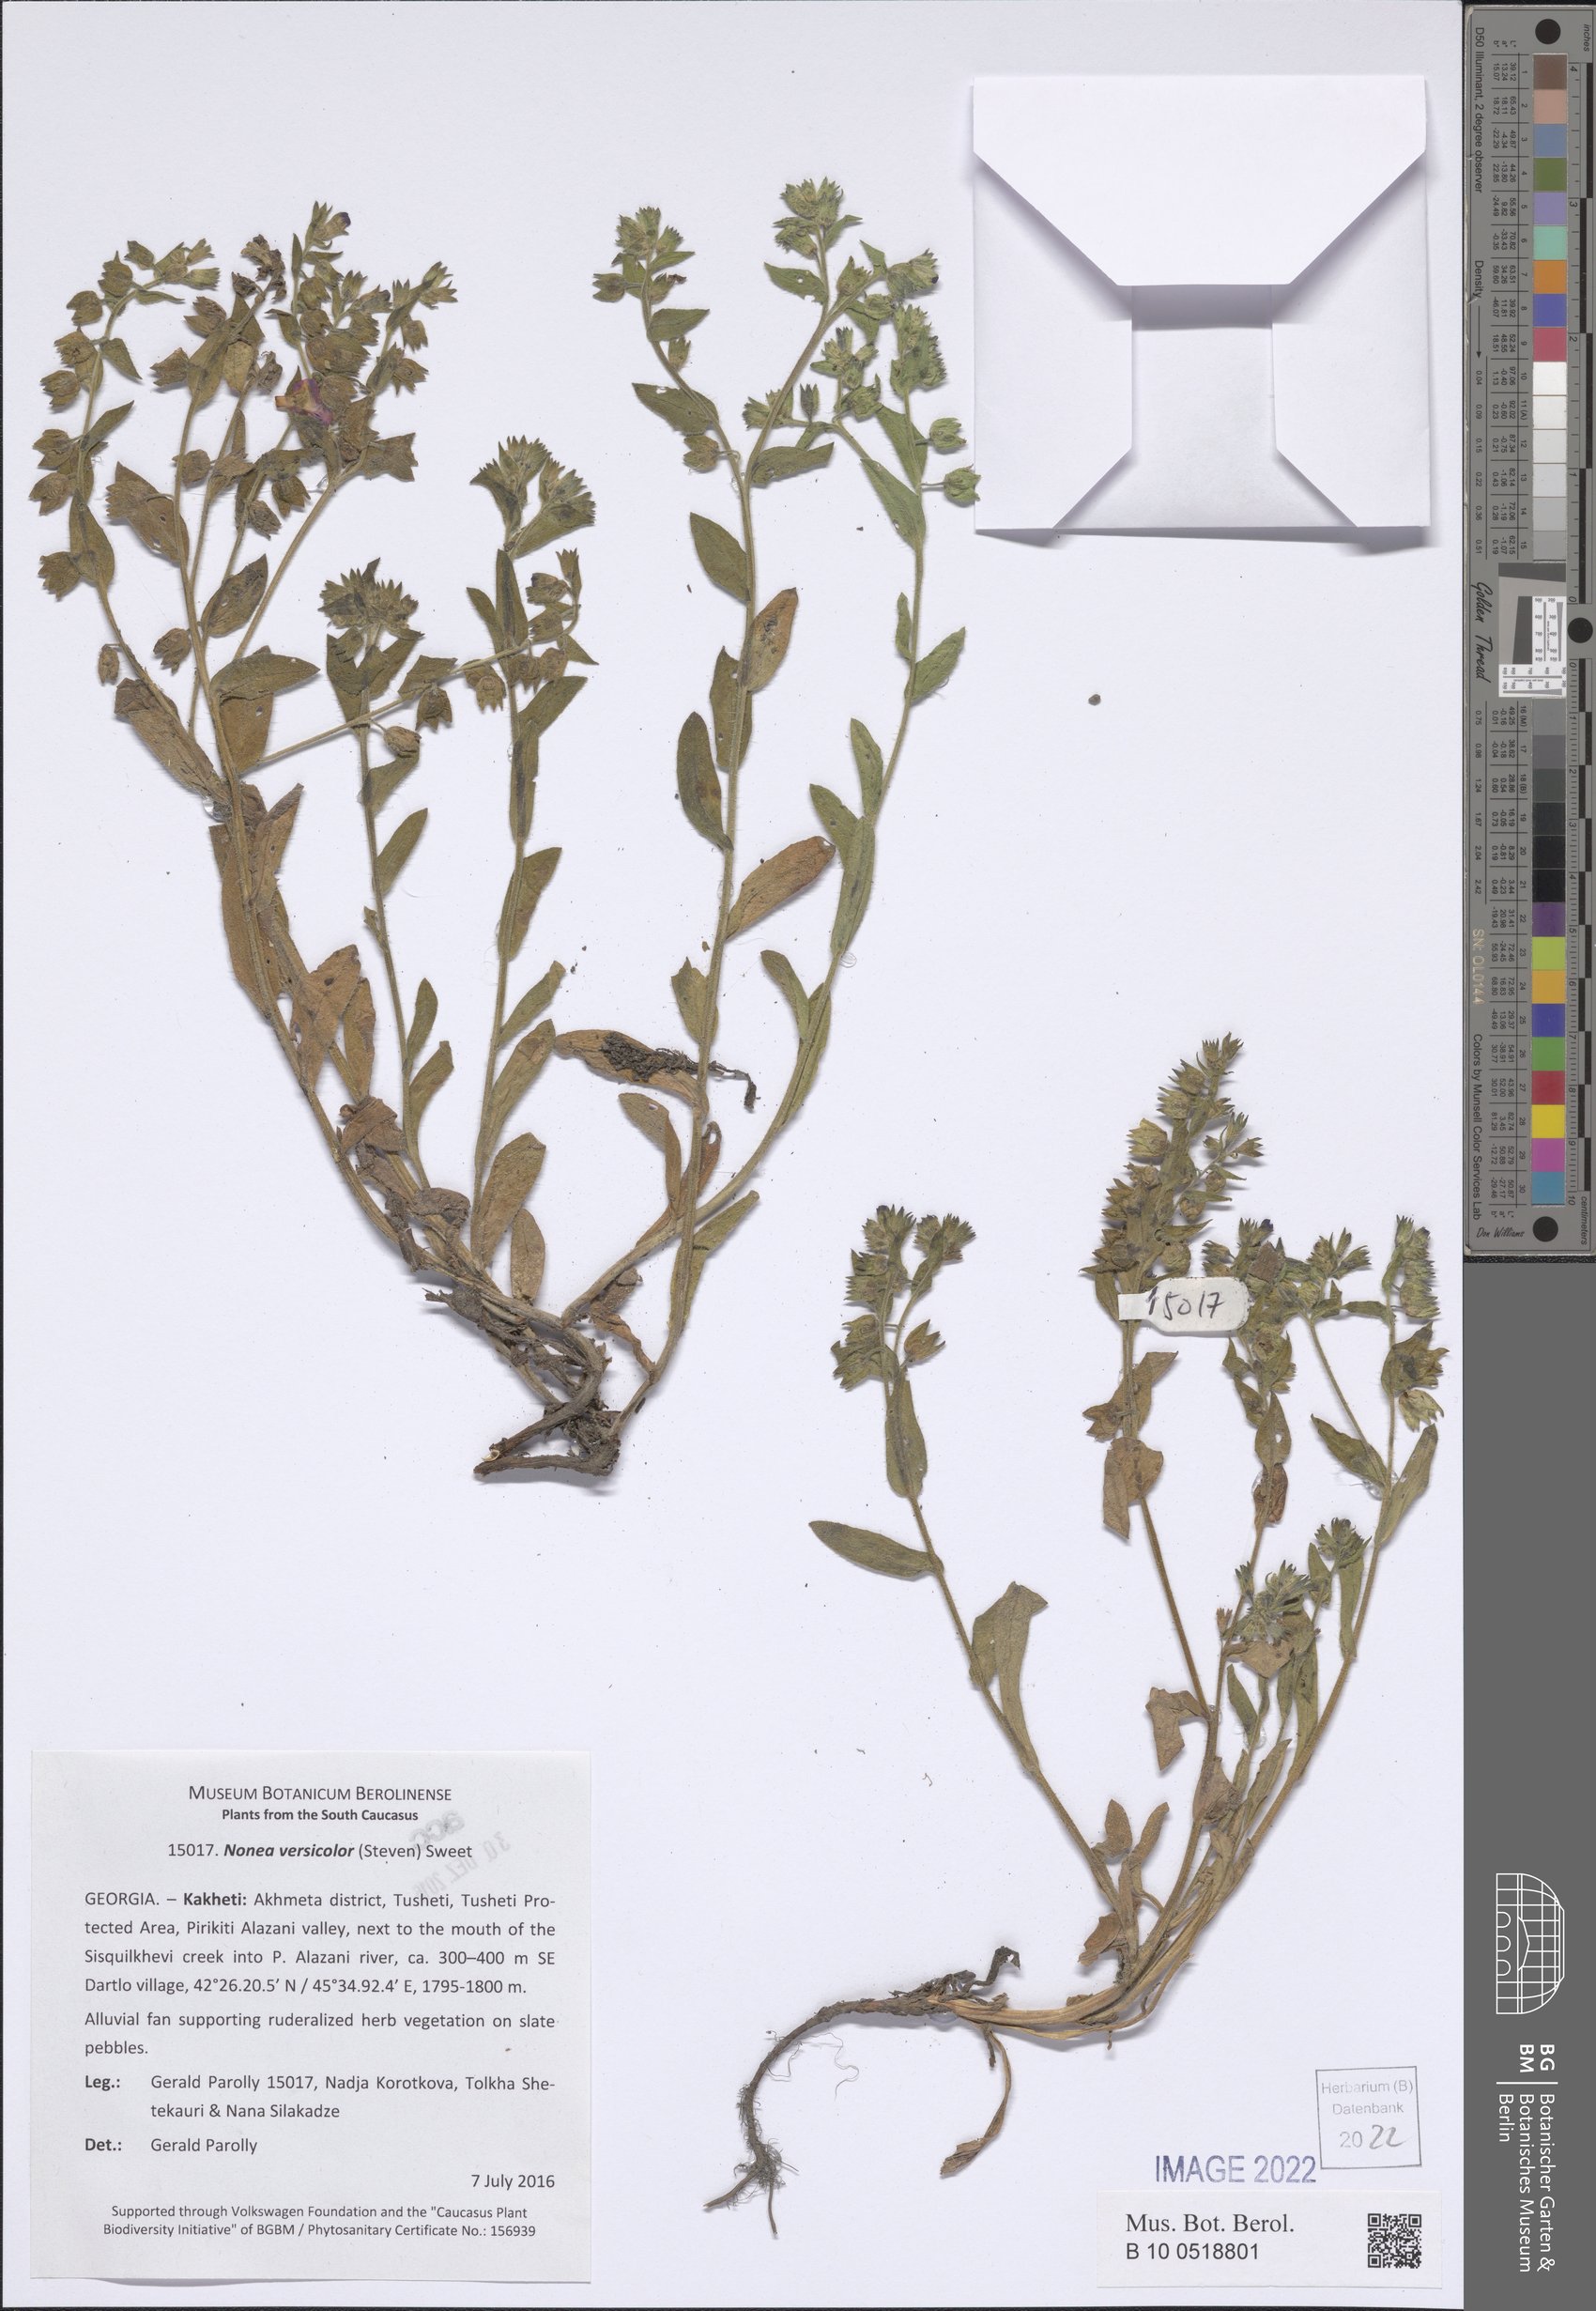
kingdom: Plantae
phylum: Tracheophyta
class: Magnoliopsida
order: Boraginales
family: Boraginaceae
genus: Nonea
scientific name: Nonea versicolor
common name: Varied monkswort
